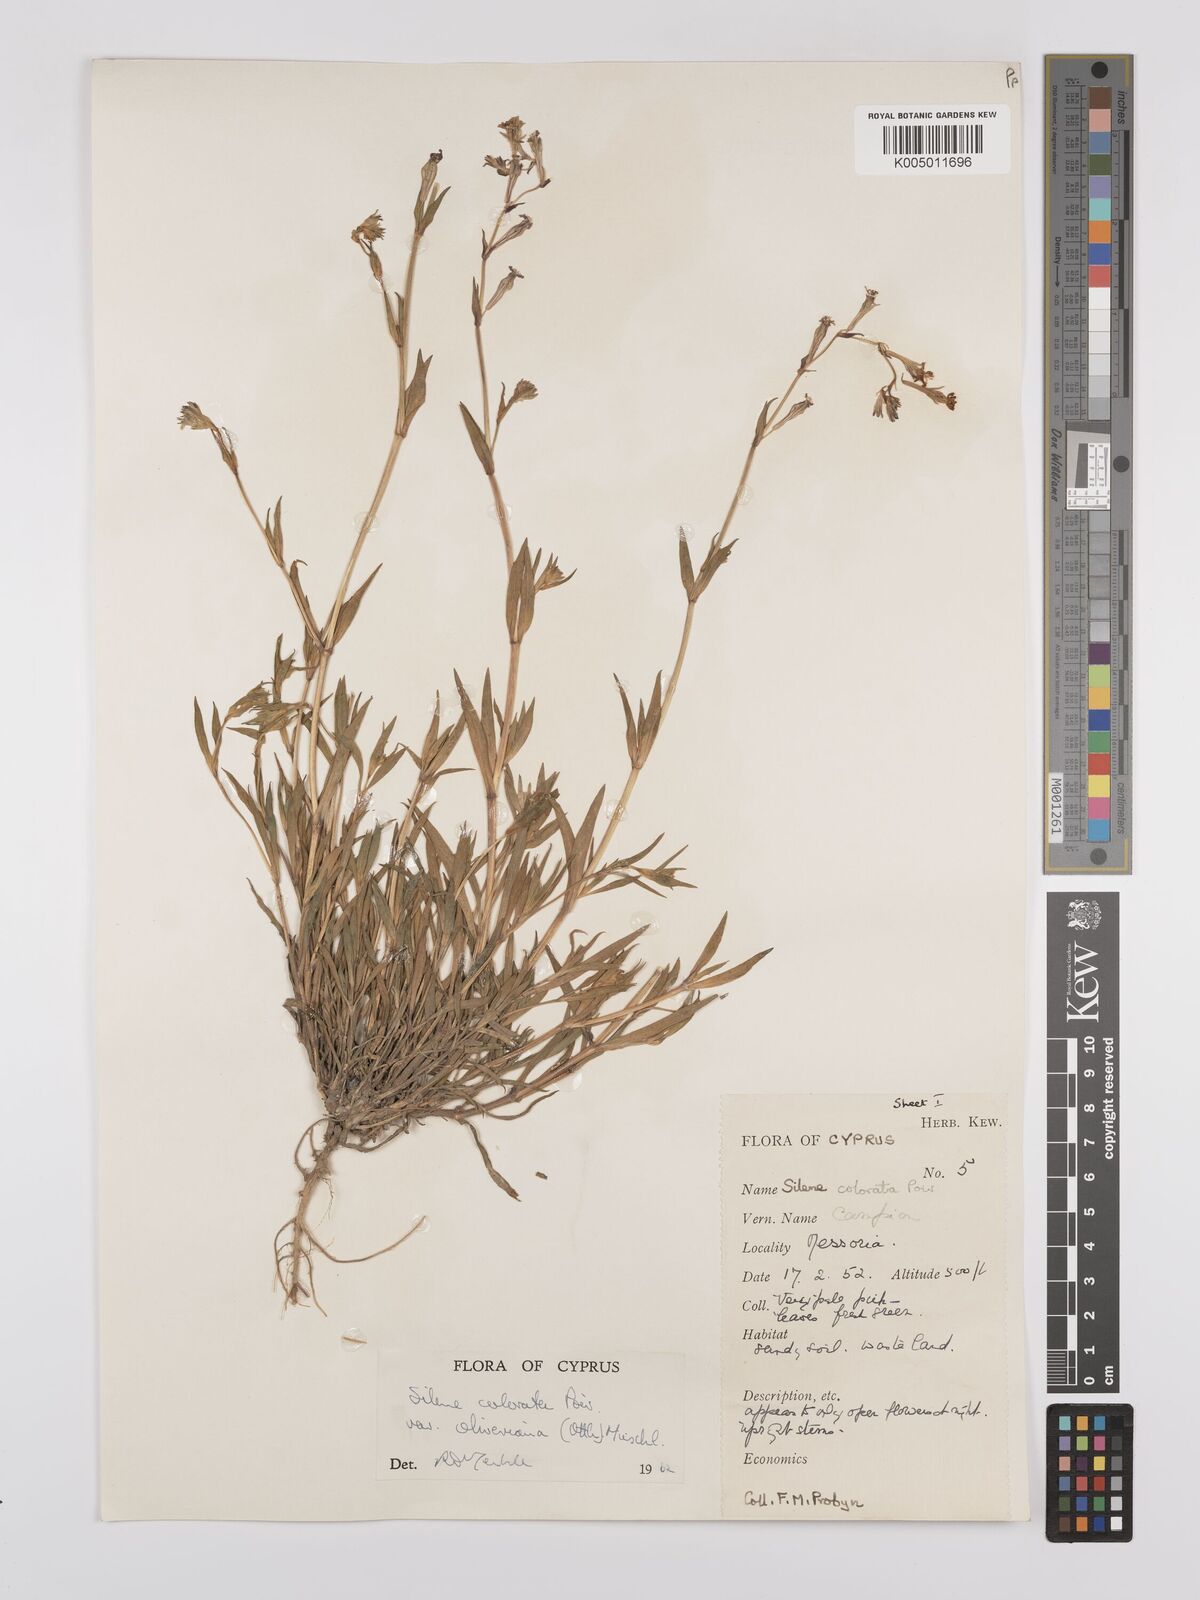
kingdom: Plantae
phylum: Tracheophyta
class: Magnoliopsida
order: Caryophyllales
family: Caryophyllaceae
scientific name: Caryophyllaceae
